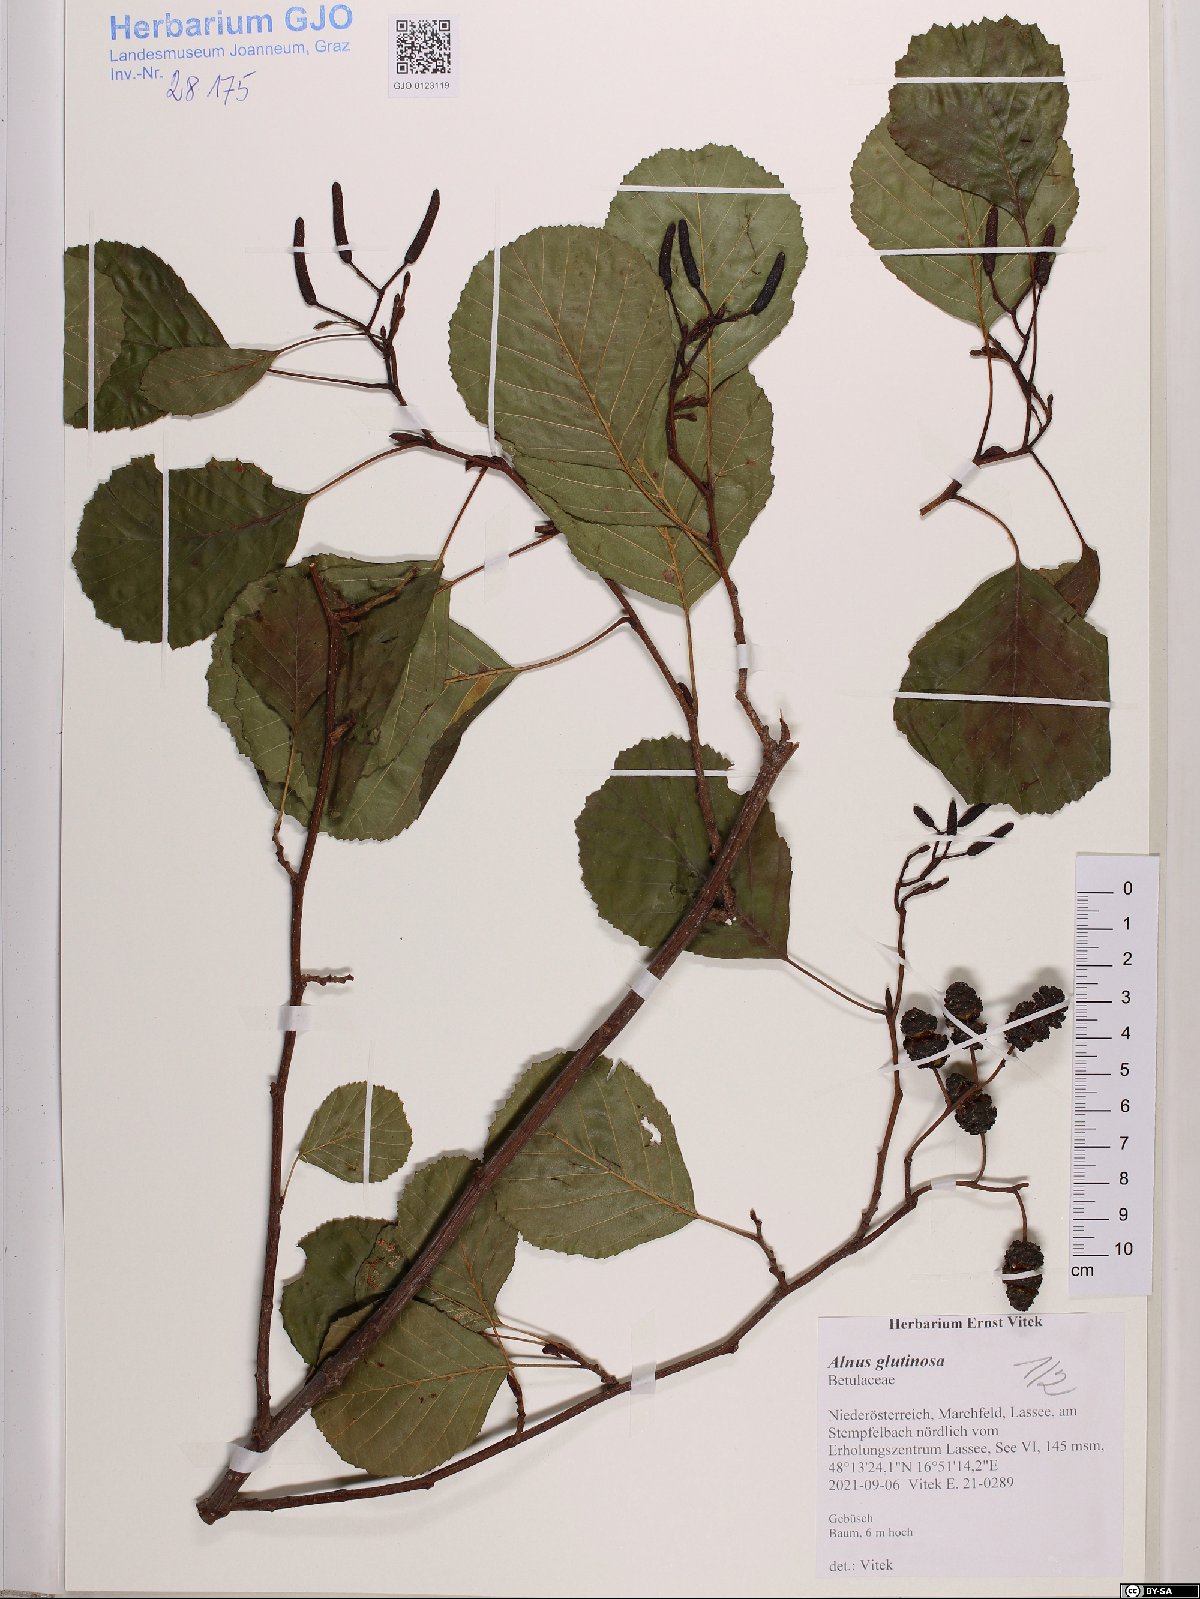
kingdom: Plantae
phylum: Tracheophyta
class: Magnoliopsida
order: Fagales
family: Betulaceae
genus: Alnus
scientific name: Alnus glutinosa
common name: Black alder
